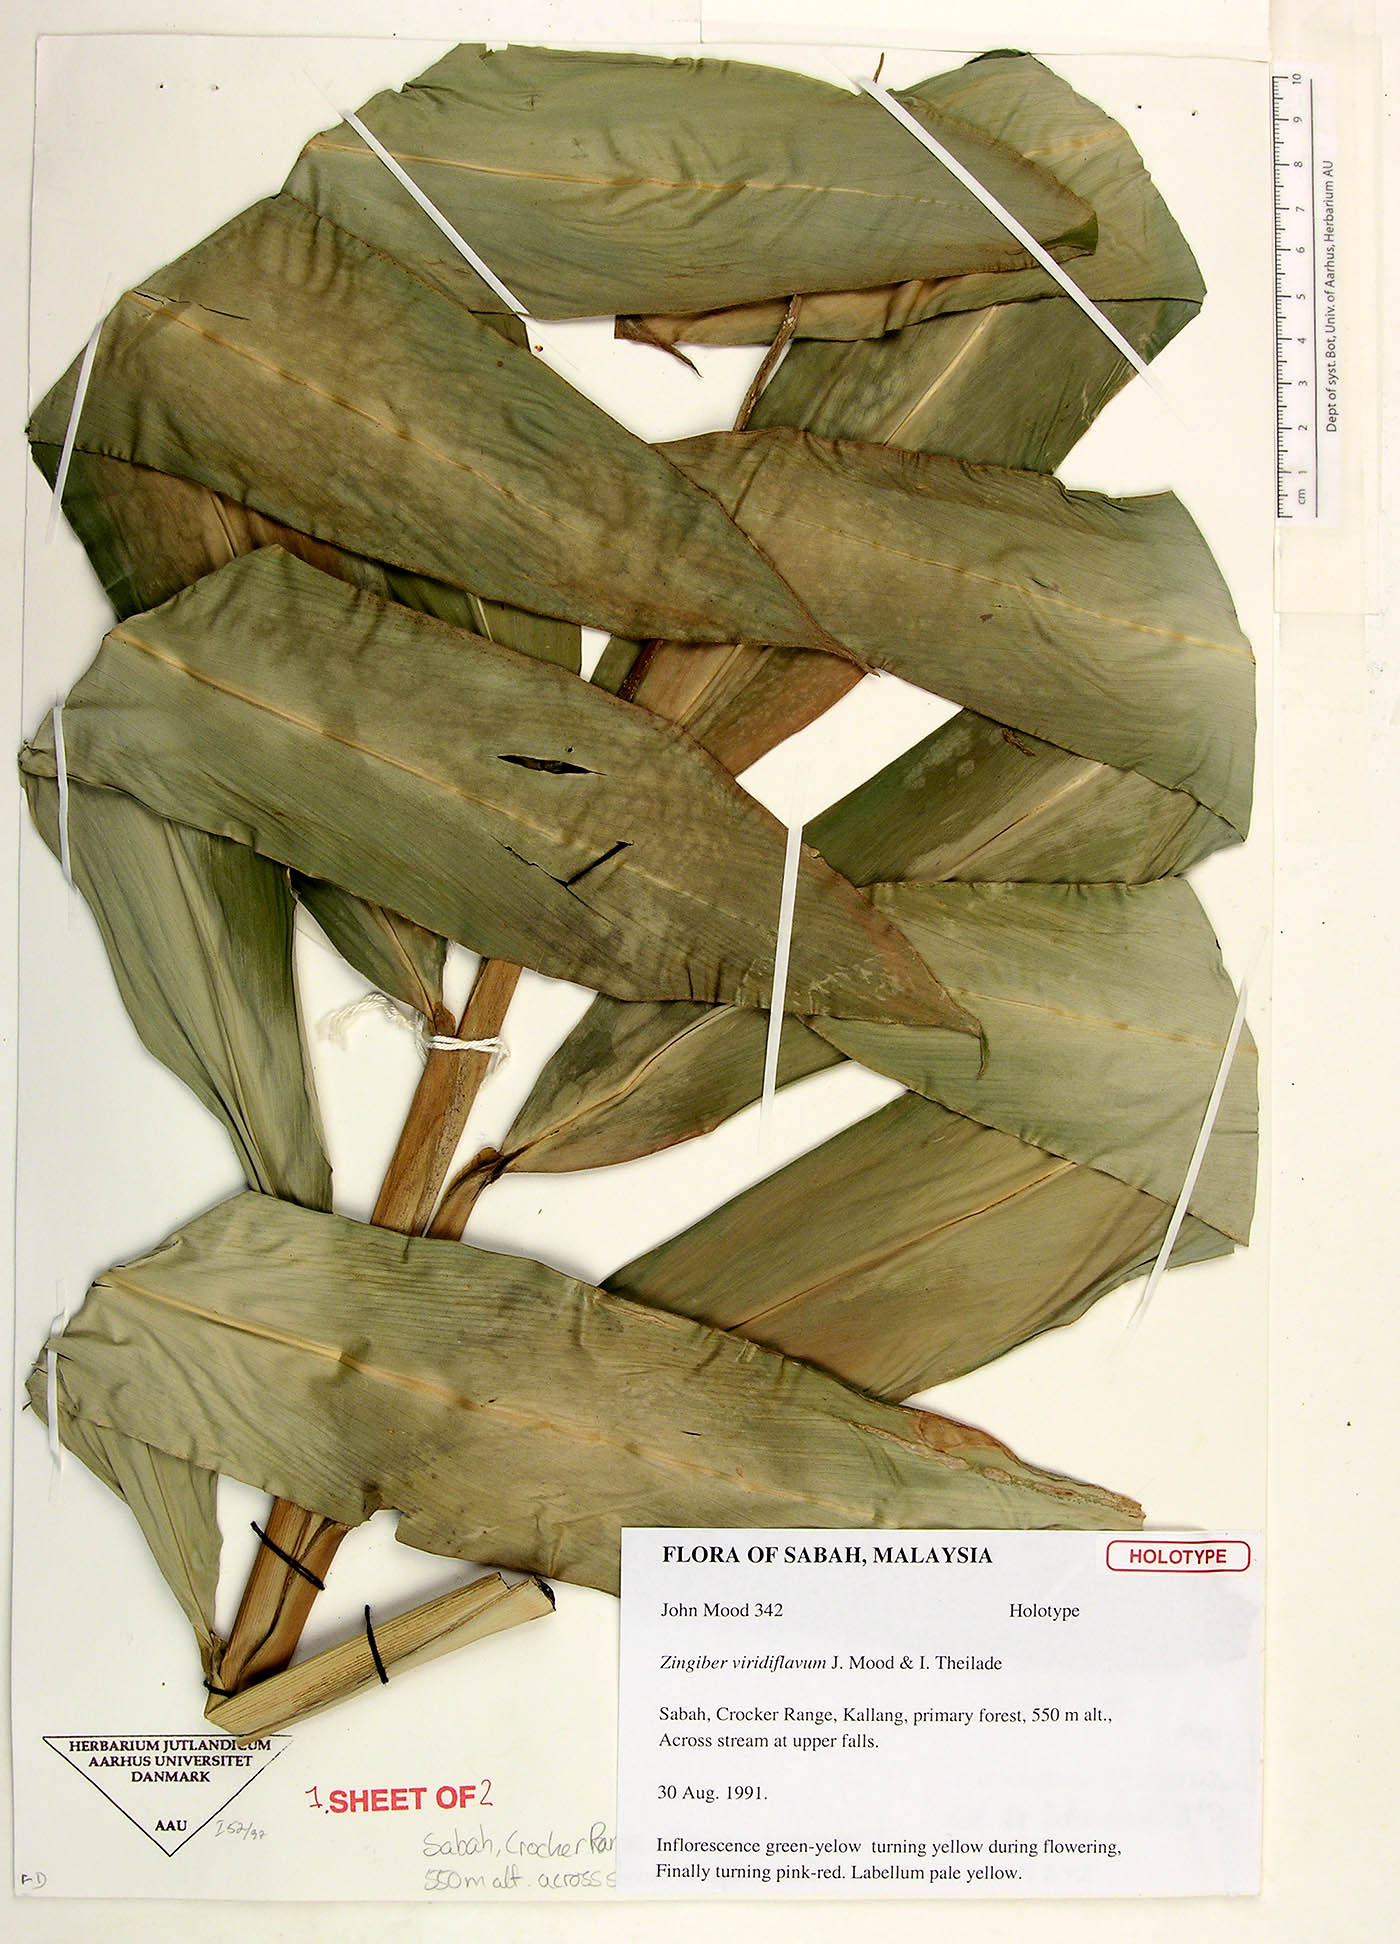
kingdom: Plantae
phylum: Tracheophyta
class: Liliopsida
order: Zingiberales
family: Zingiberaceae
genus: Zingiber
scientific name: Zingiber viridiflavum
